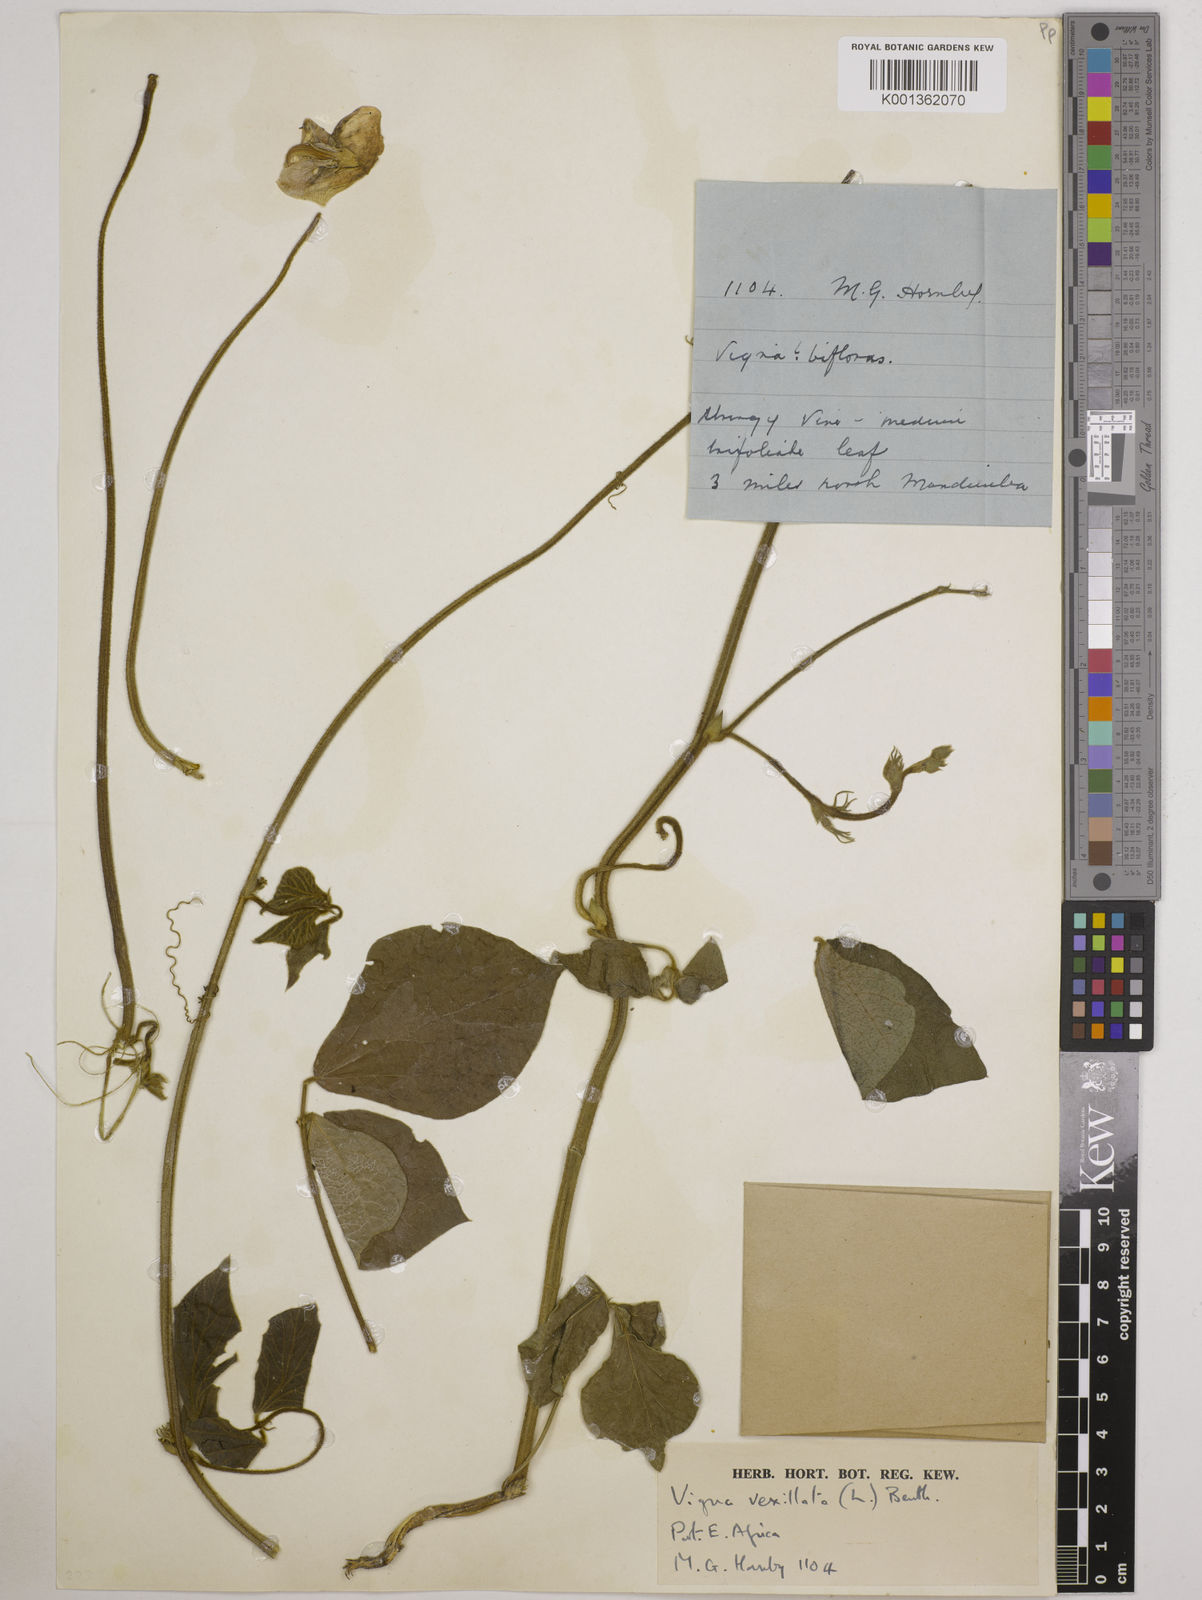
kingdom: Plantae
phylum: Tracheophyta
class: Magnoliopsida
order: Fabales
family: Fabaceae
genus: Vigna
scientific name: Vigna vexillata
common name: Zombi pea
